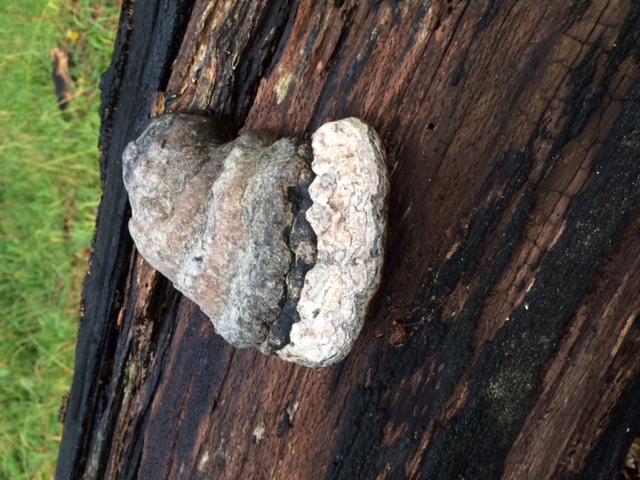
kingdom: Fungi
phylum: Basidiomycota
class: Agaricomycetes
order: Polyporales
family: Polyporaceae
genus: Fomes
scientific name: Fomes fomentarius
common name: tøndersvamp
